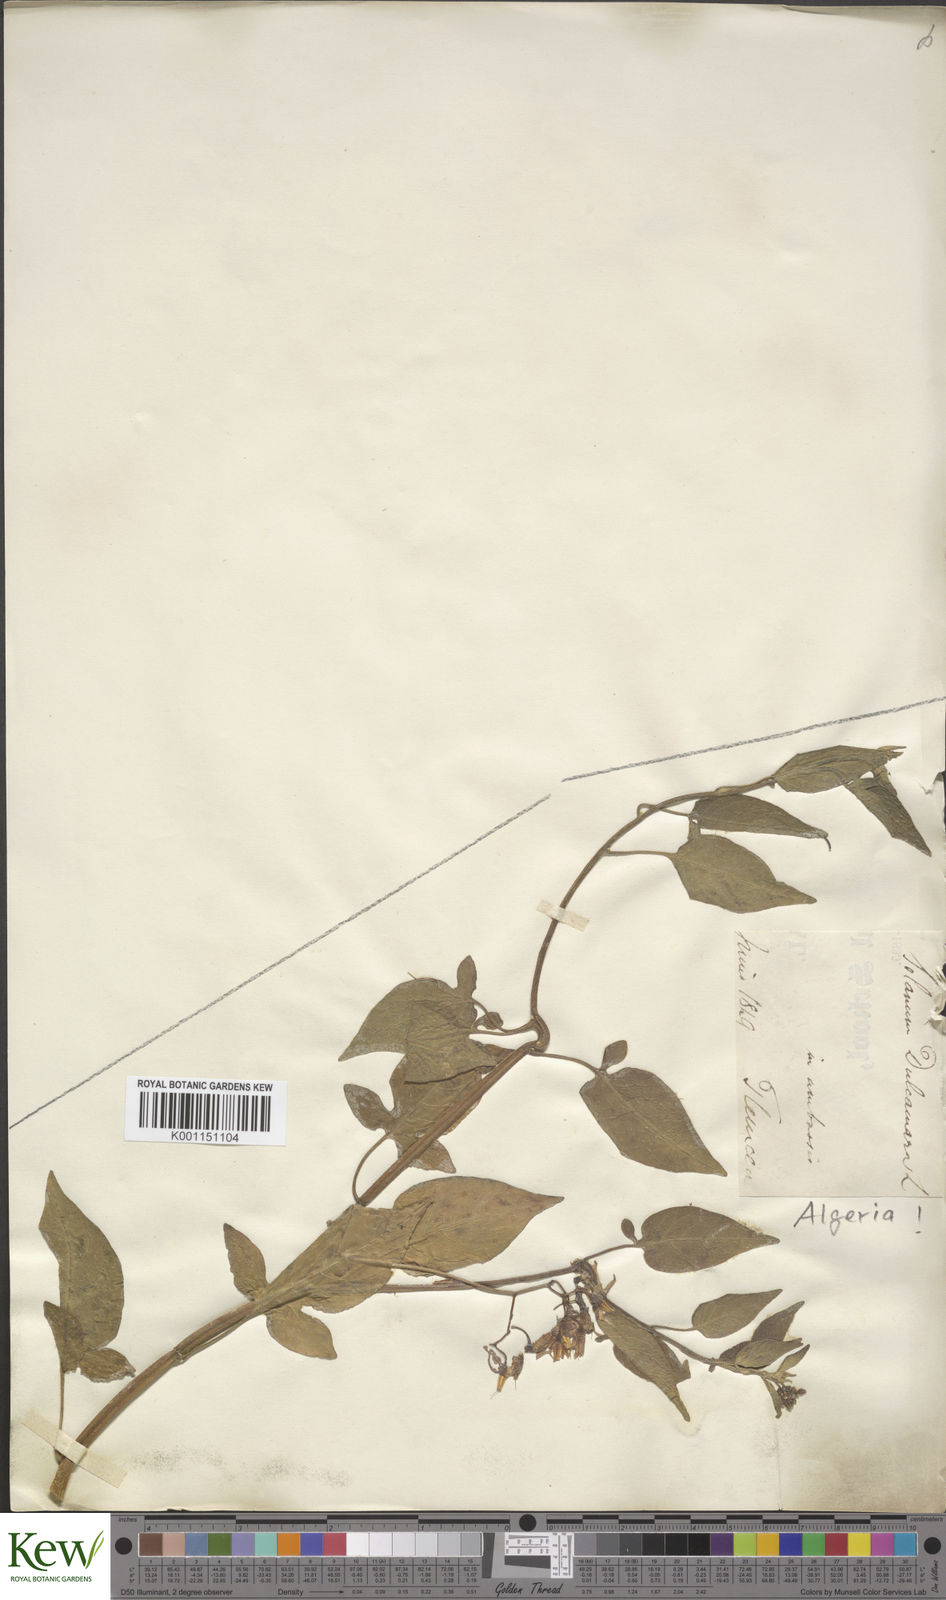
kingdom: Plantae
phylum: Tracheophyta
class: Magnoliopsida
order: Solanales
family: Solanaceae
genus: Solanum
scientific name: Solanum dulcamara
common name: Climbing nightshade
